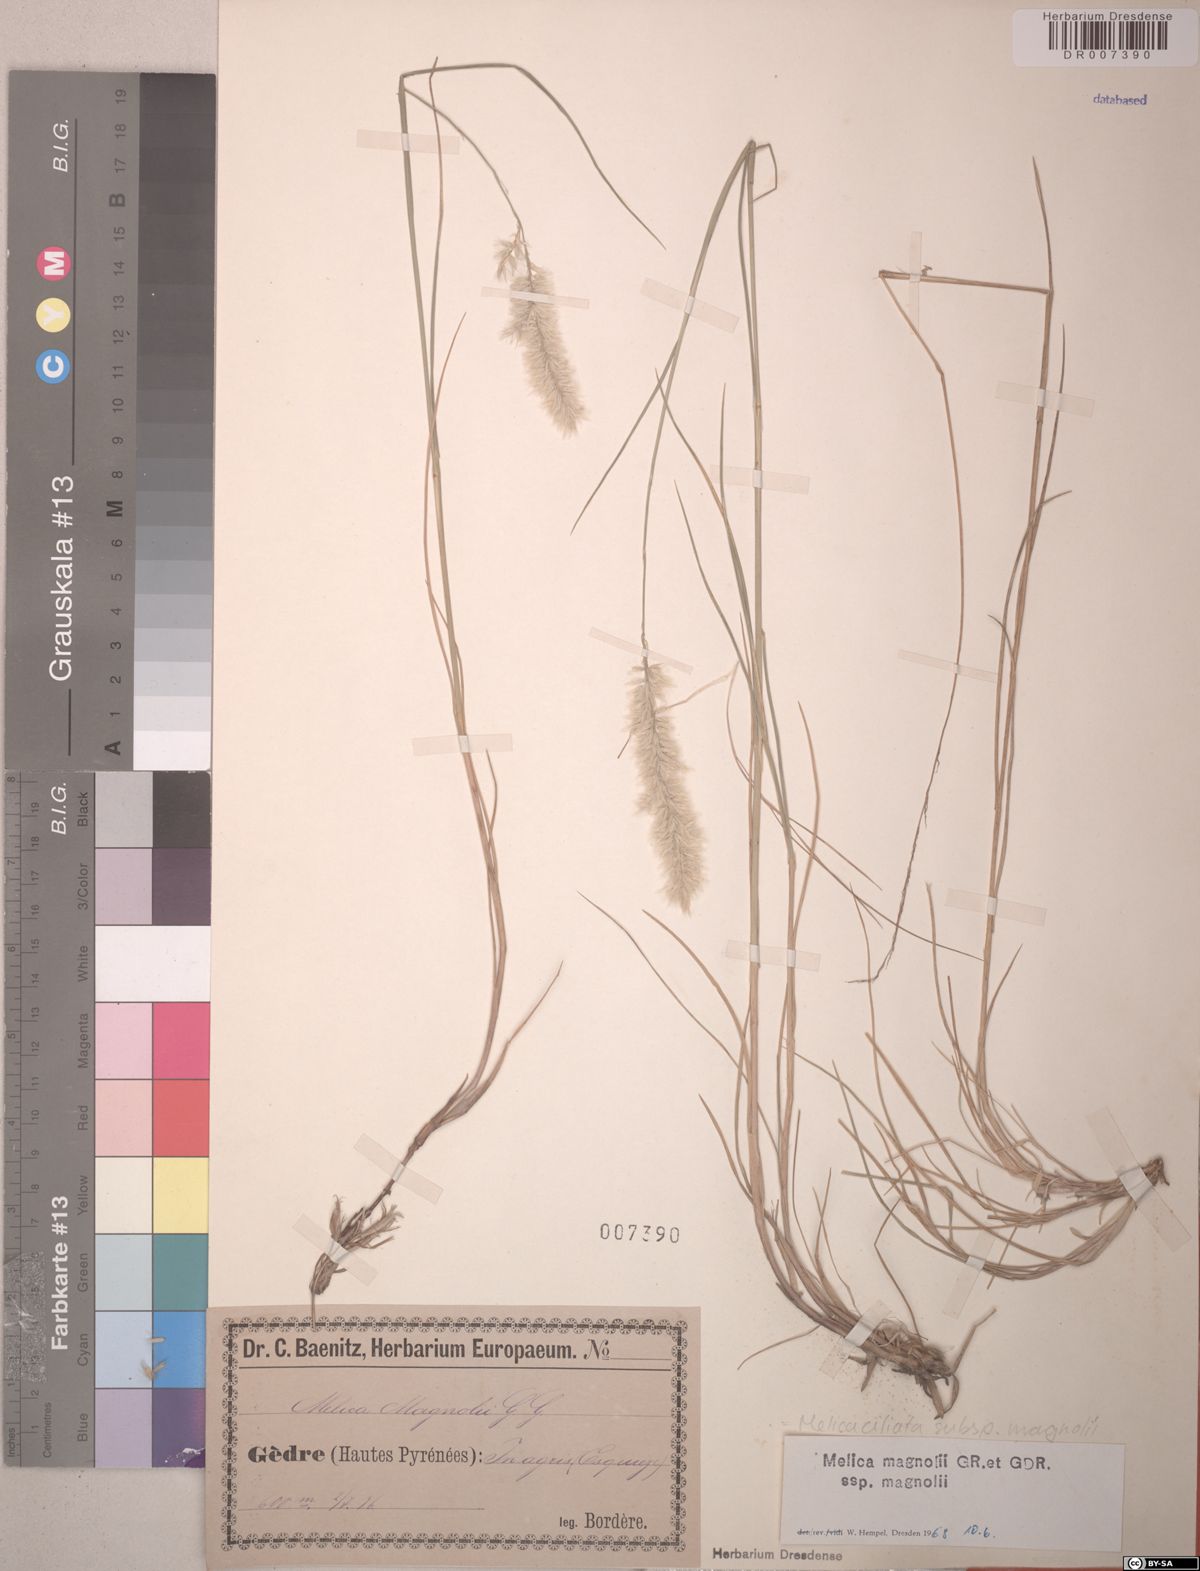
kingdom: Plantae
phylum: Tracheophyta
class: Liliopsida
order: Poales
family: Poaceae
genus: Melica
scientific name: Melica ciliata
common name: Hairy melicgrass
